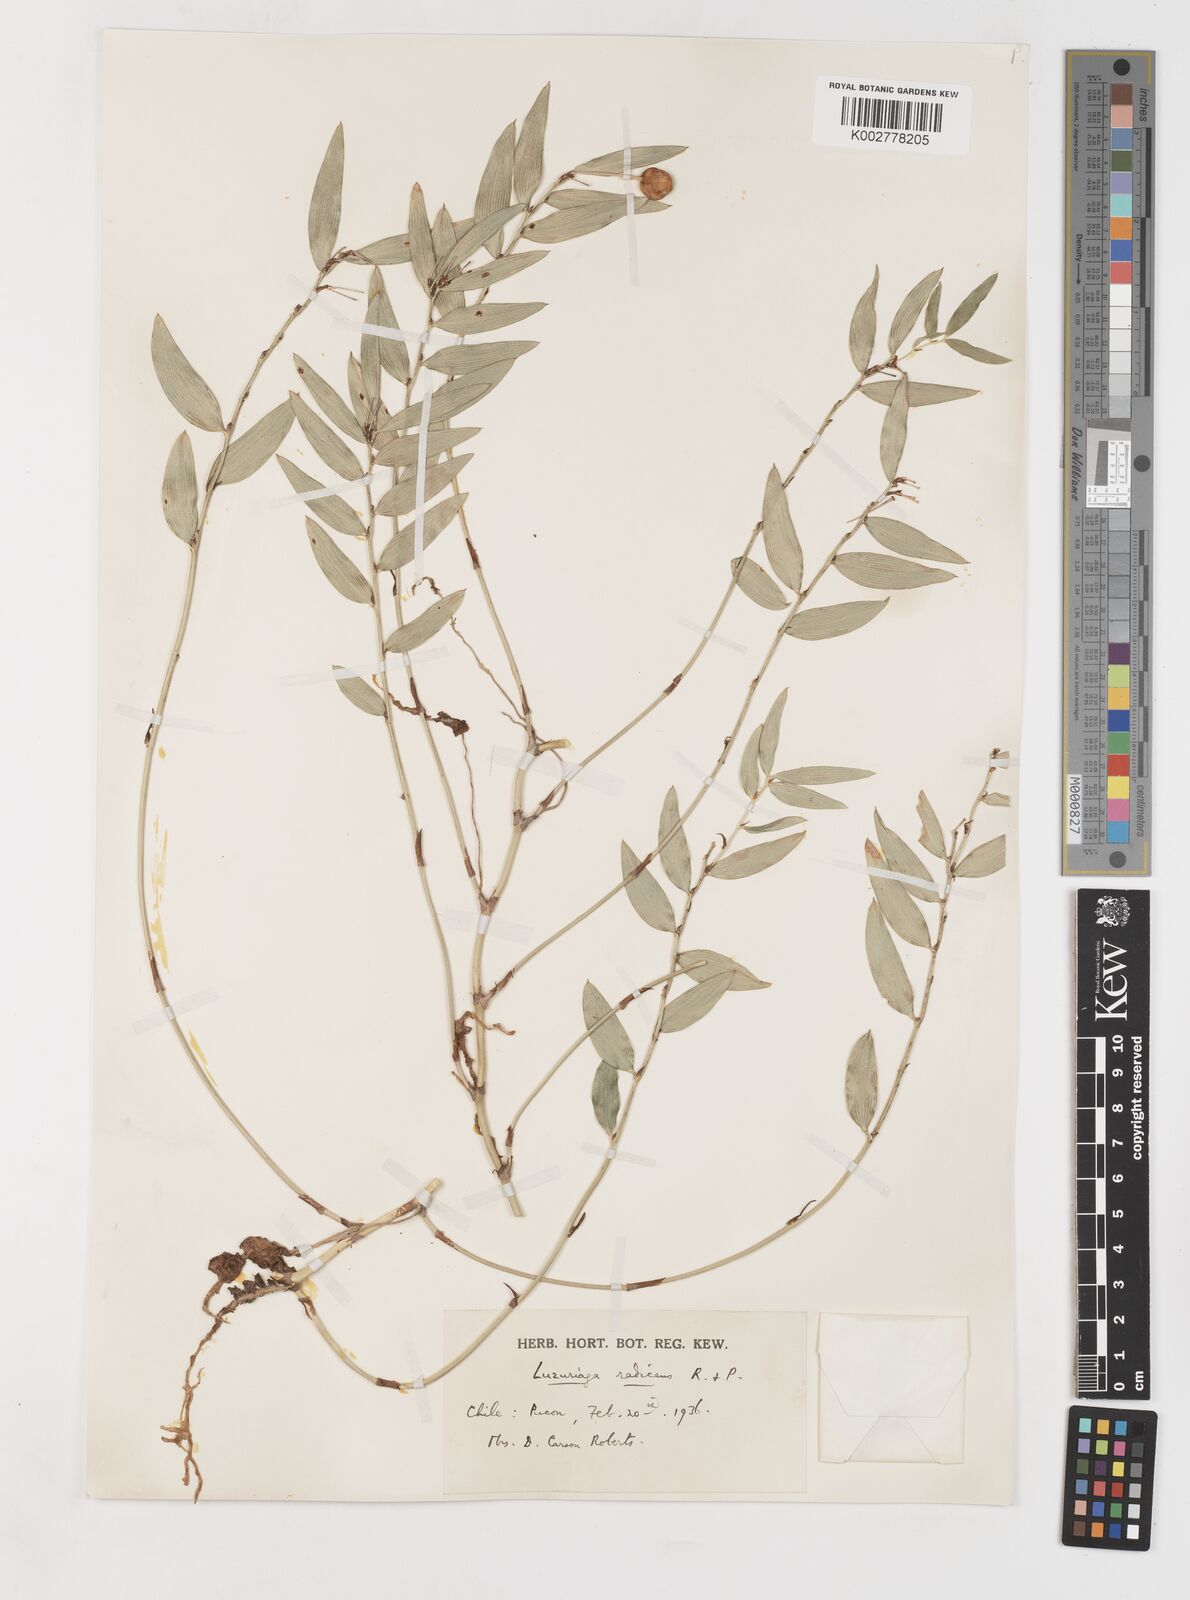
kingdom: Plantae
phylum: Tracheophyta
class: Liliopsida
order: Liliales
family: Alstroemeriaceae
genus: Luzuriaga
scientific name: Luzuriaga radicans
